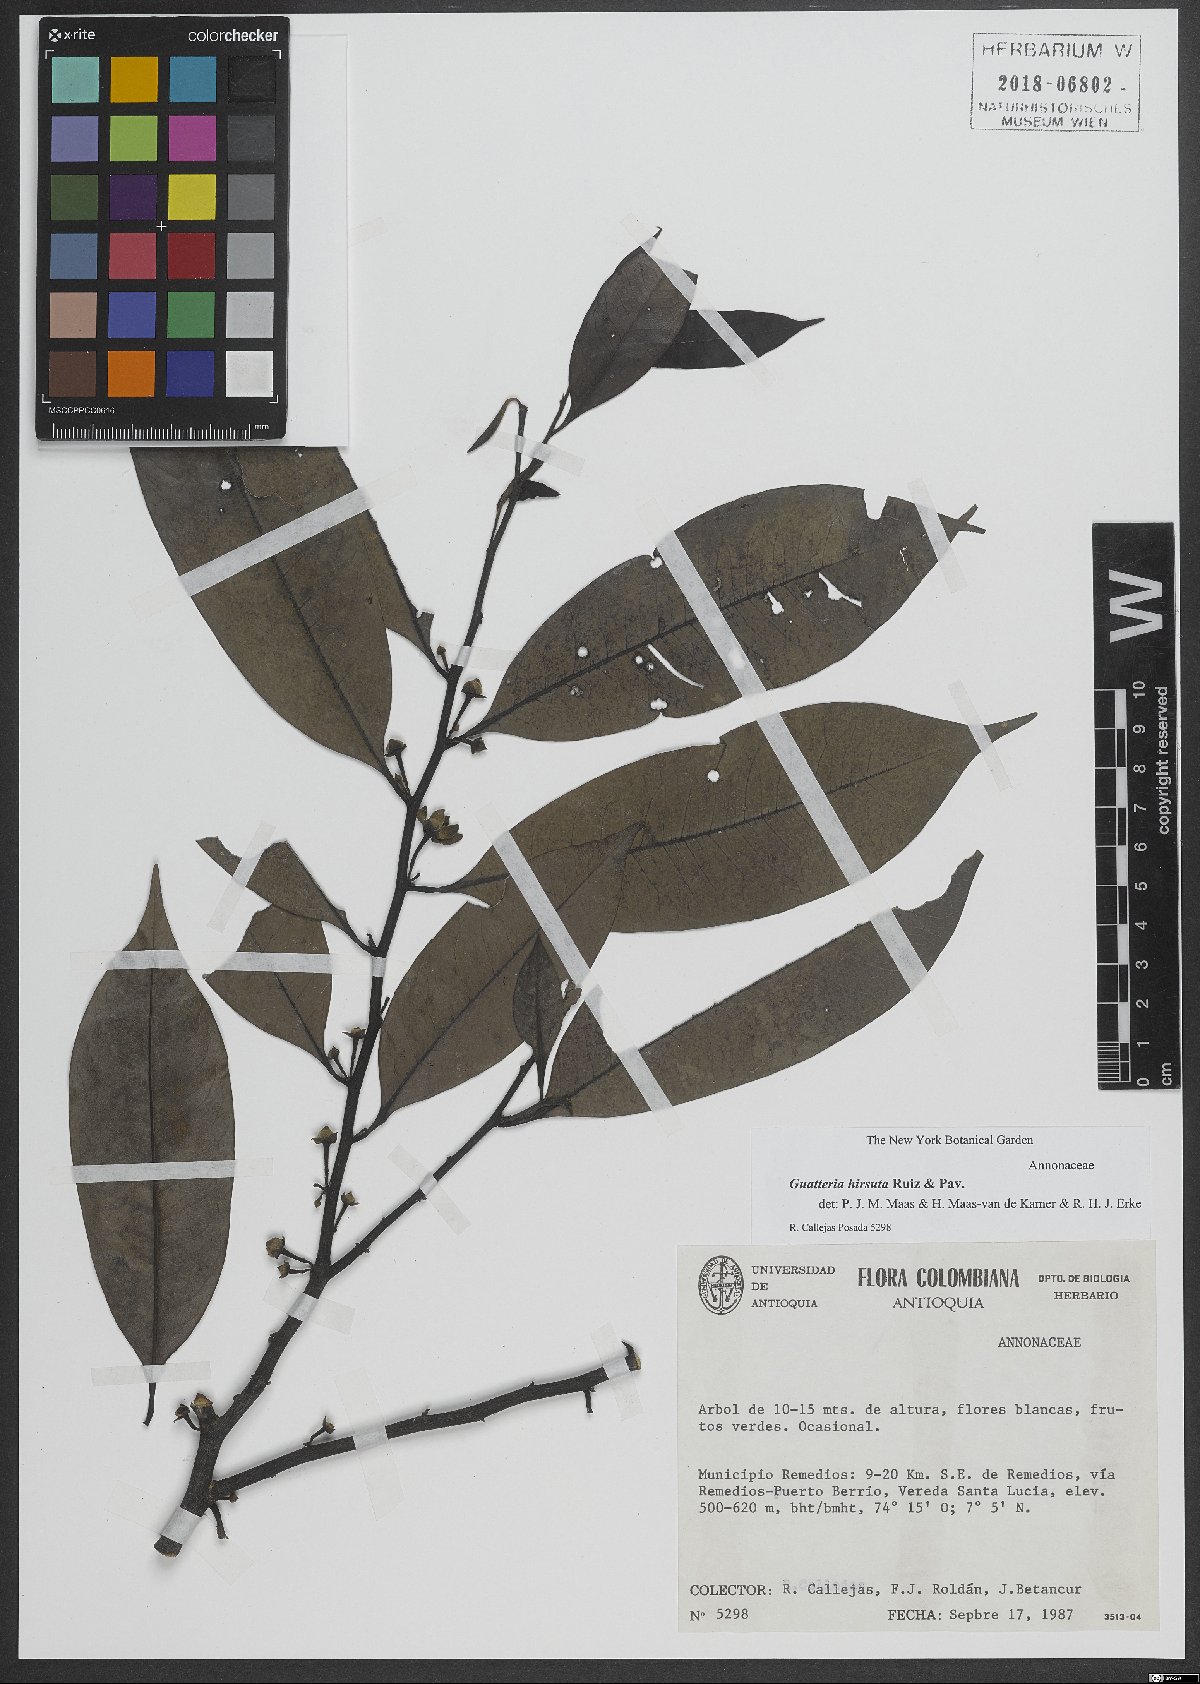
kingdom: Plantae
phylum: Tracheophyta
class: Magnoliopsida
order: Magnoliales
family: Annonaceae
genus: Guatteria
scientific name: Guatteria hirsuta
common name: Laurel
